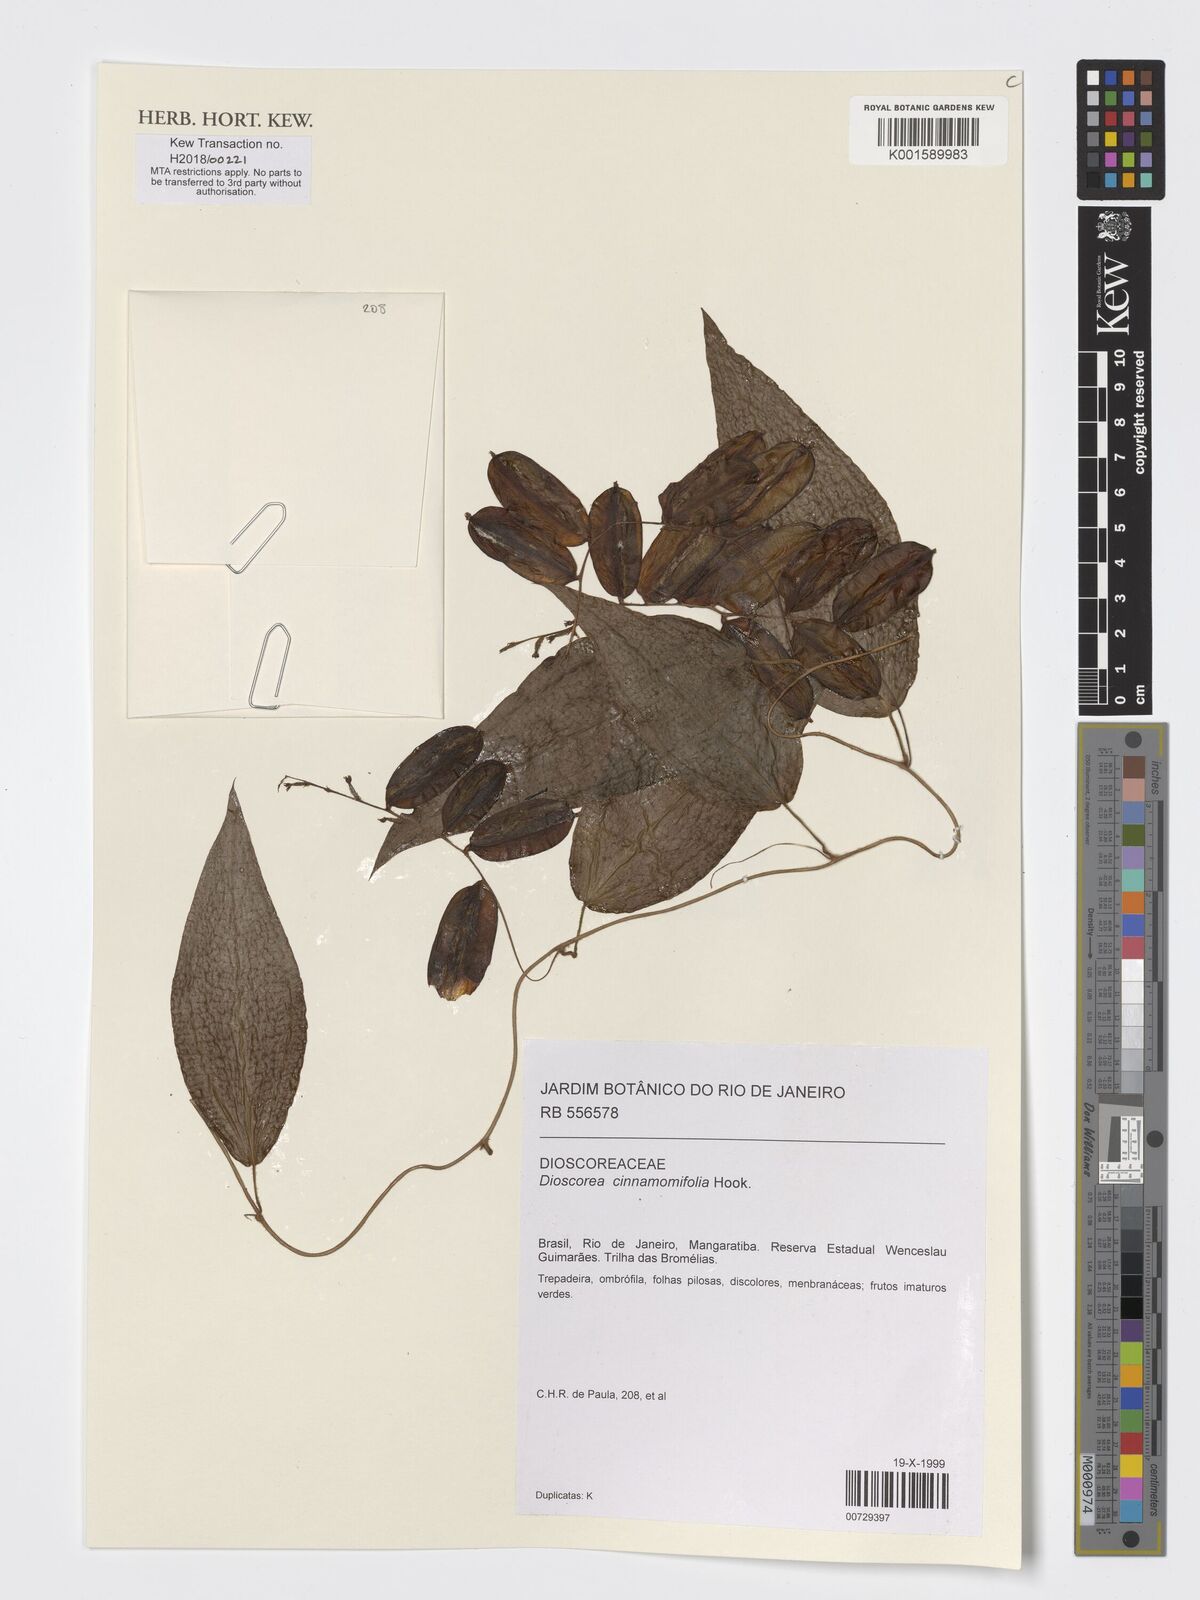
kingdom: Plantae
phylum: Tracheophyta
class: Liliopsida
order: Dioscoreales
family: Dioscoreaceae
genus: Dioscorea
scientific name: Dioscorea cinnamomifolia
